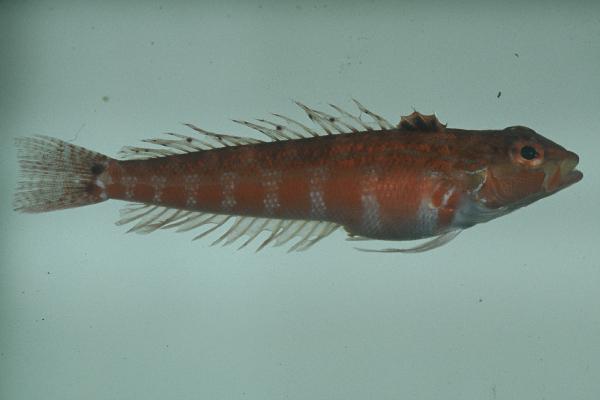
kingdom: Animalia
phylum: Chordata
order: Perciformes
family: Pinguipedidae
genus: Parapercis
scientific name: Parapercis schauinslandii
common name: Redspotted sandperch
